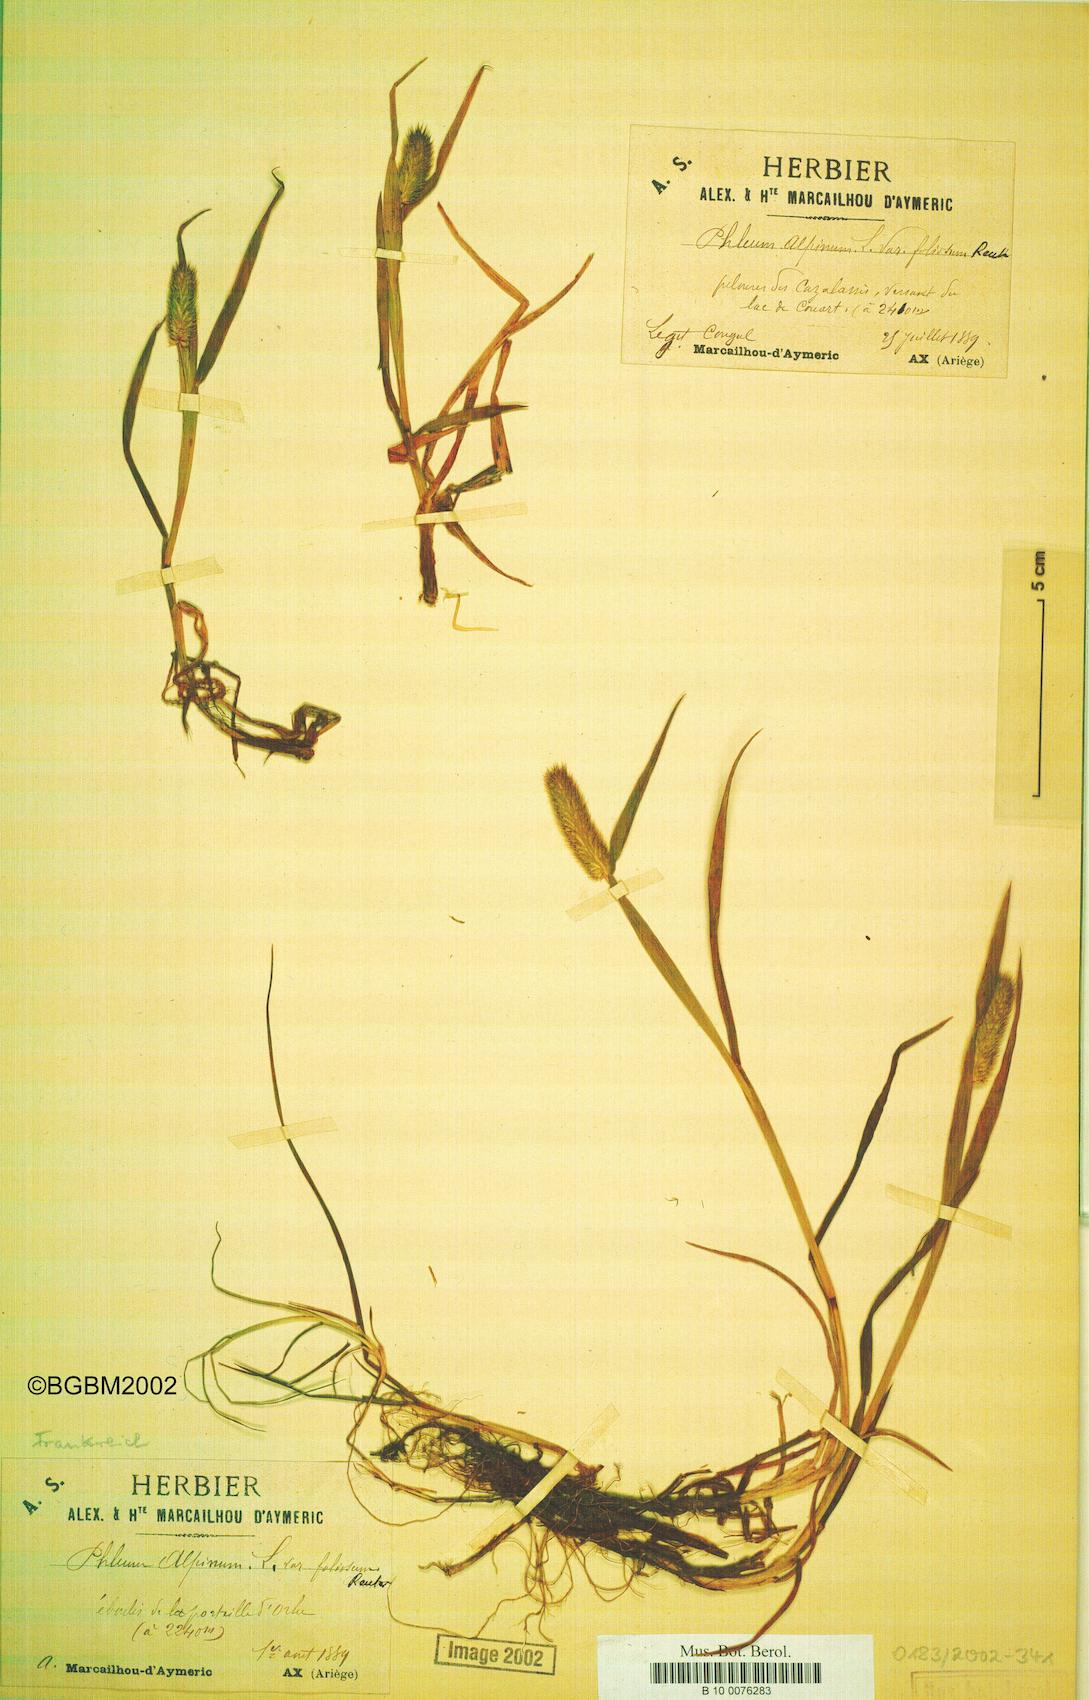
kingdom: Plantae
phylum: Tracheophyta
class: Liliopsida
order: Poales
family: Poaceae
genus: Phleum
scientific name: Phleum alpinum
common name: Alpine cat's-tail
